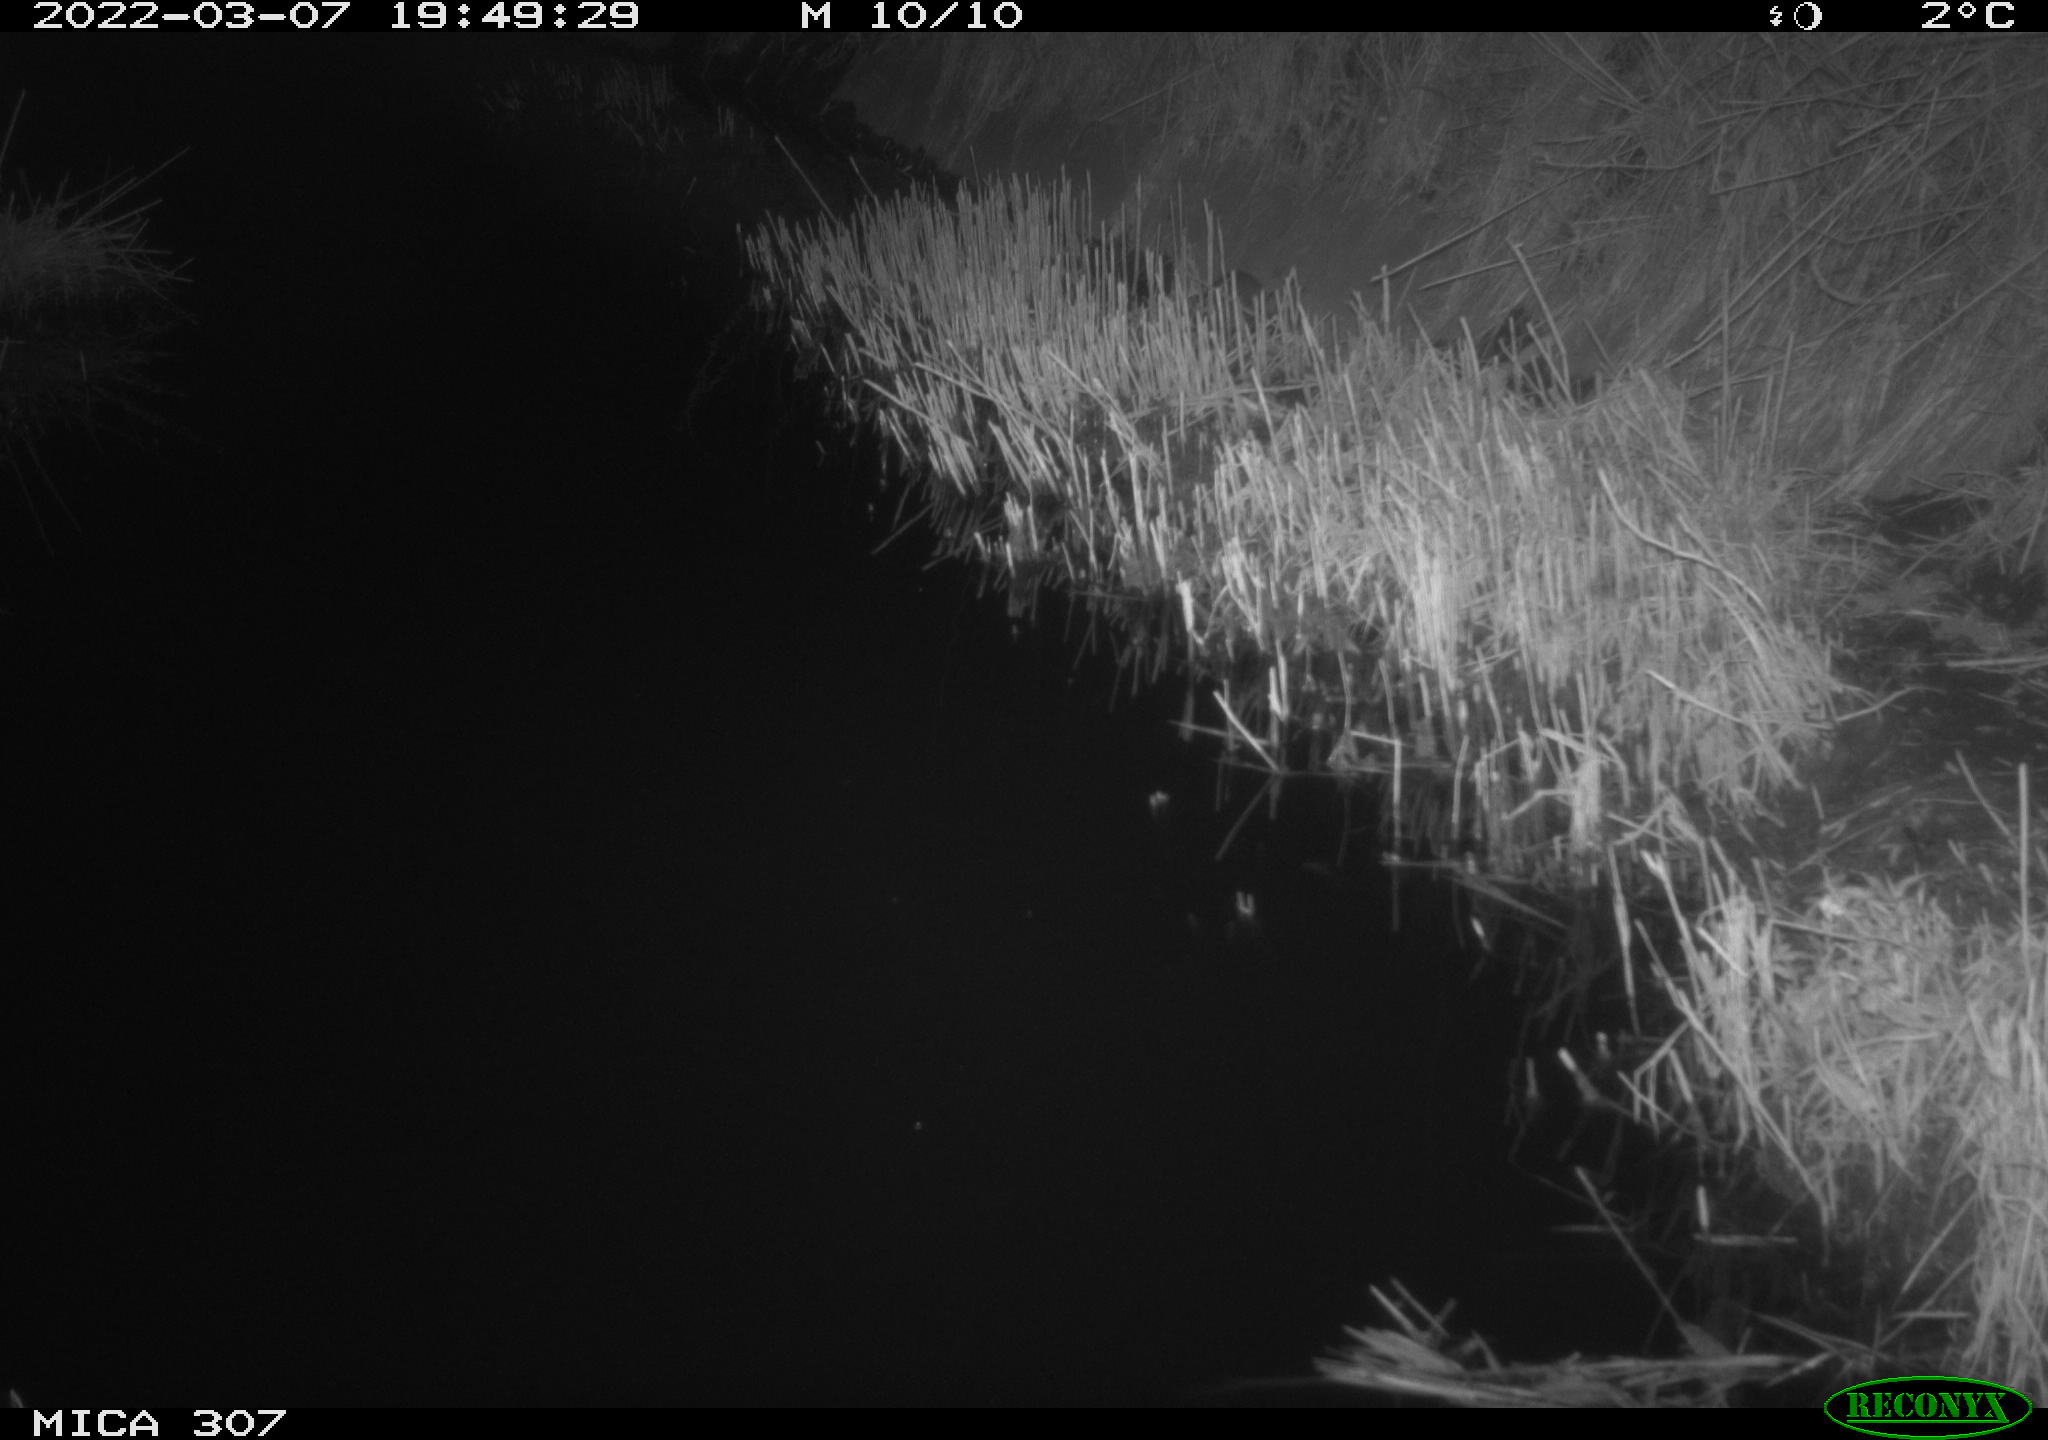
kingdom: Animalia
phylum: Chordata
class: Mammalia
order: Rodentia
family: Muridae
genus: Rattus
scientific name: Rattus norvegicus
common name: Brown rat
